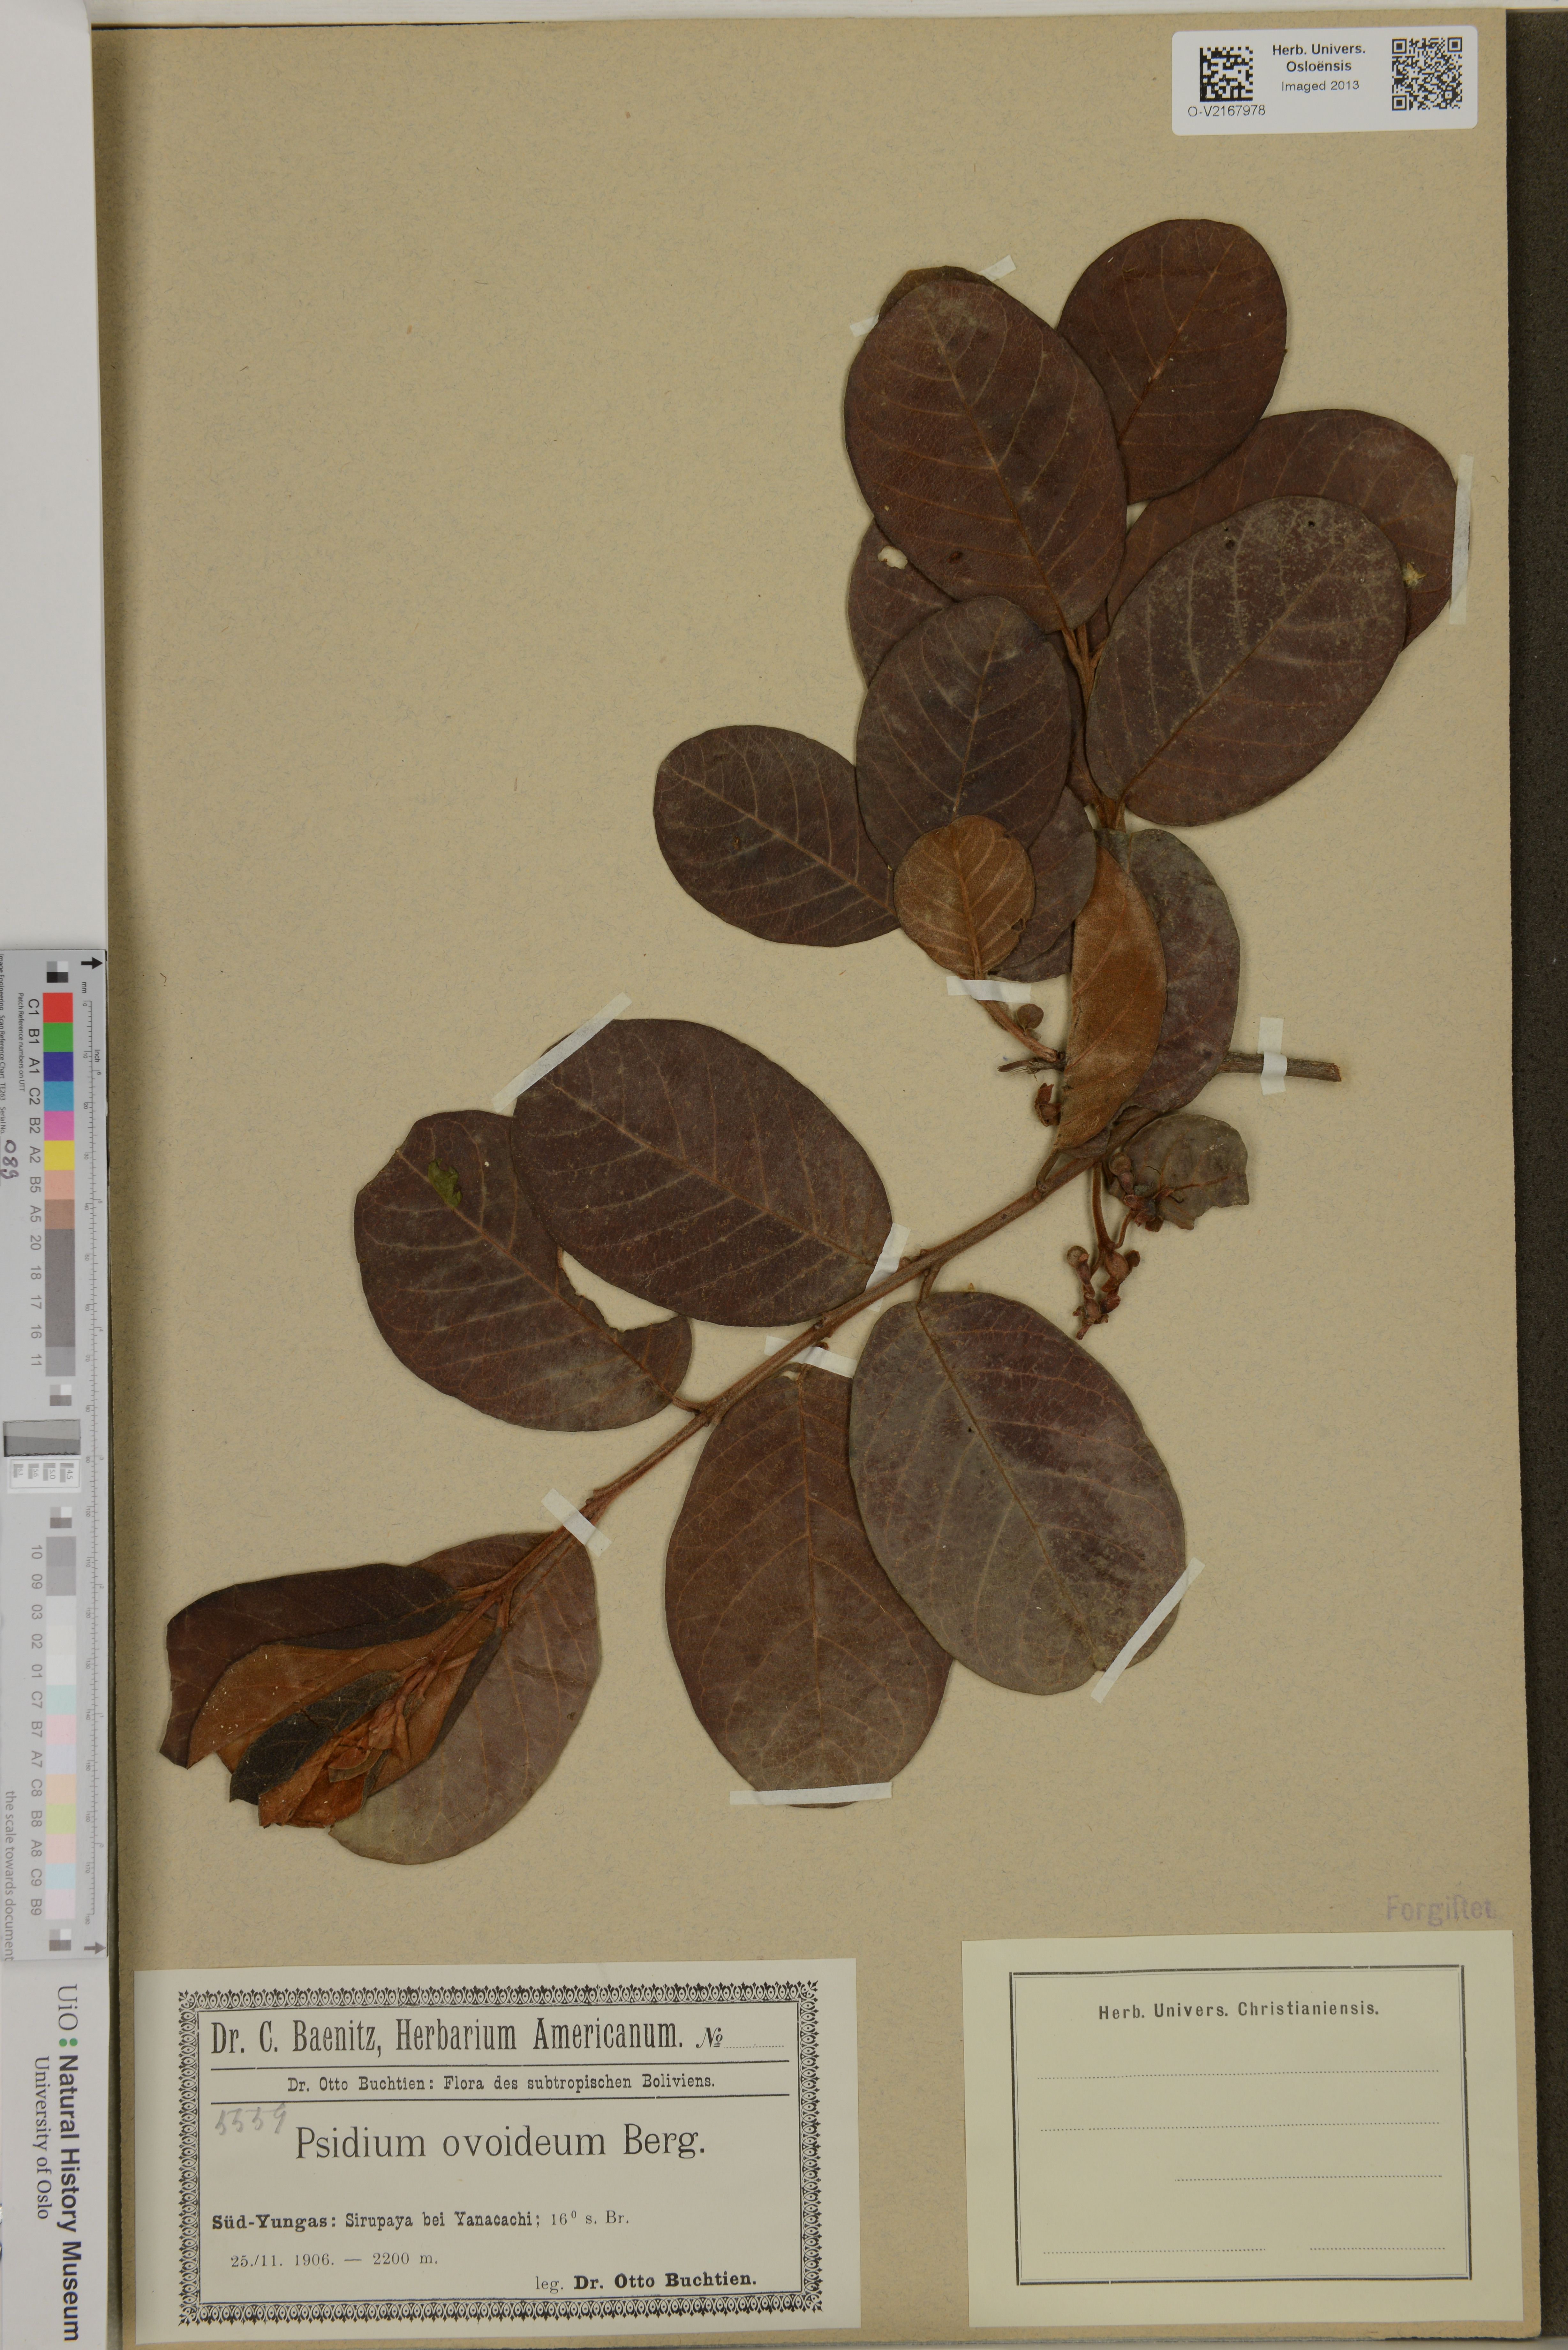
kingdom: Plantae
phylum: Tracheophyta
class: Magnoliopsida
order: Myrtales
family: Myrtaceae
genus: Psidium
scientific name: Psidium
